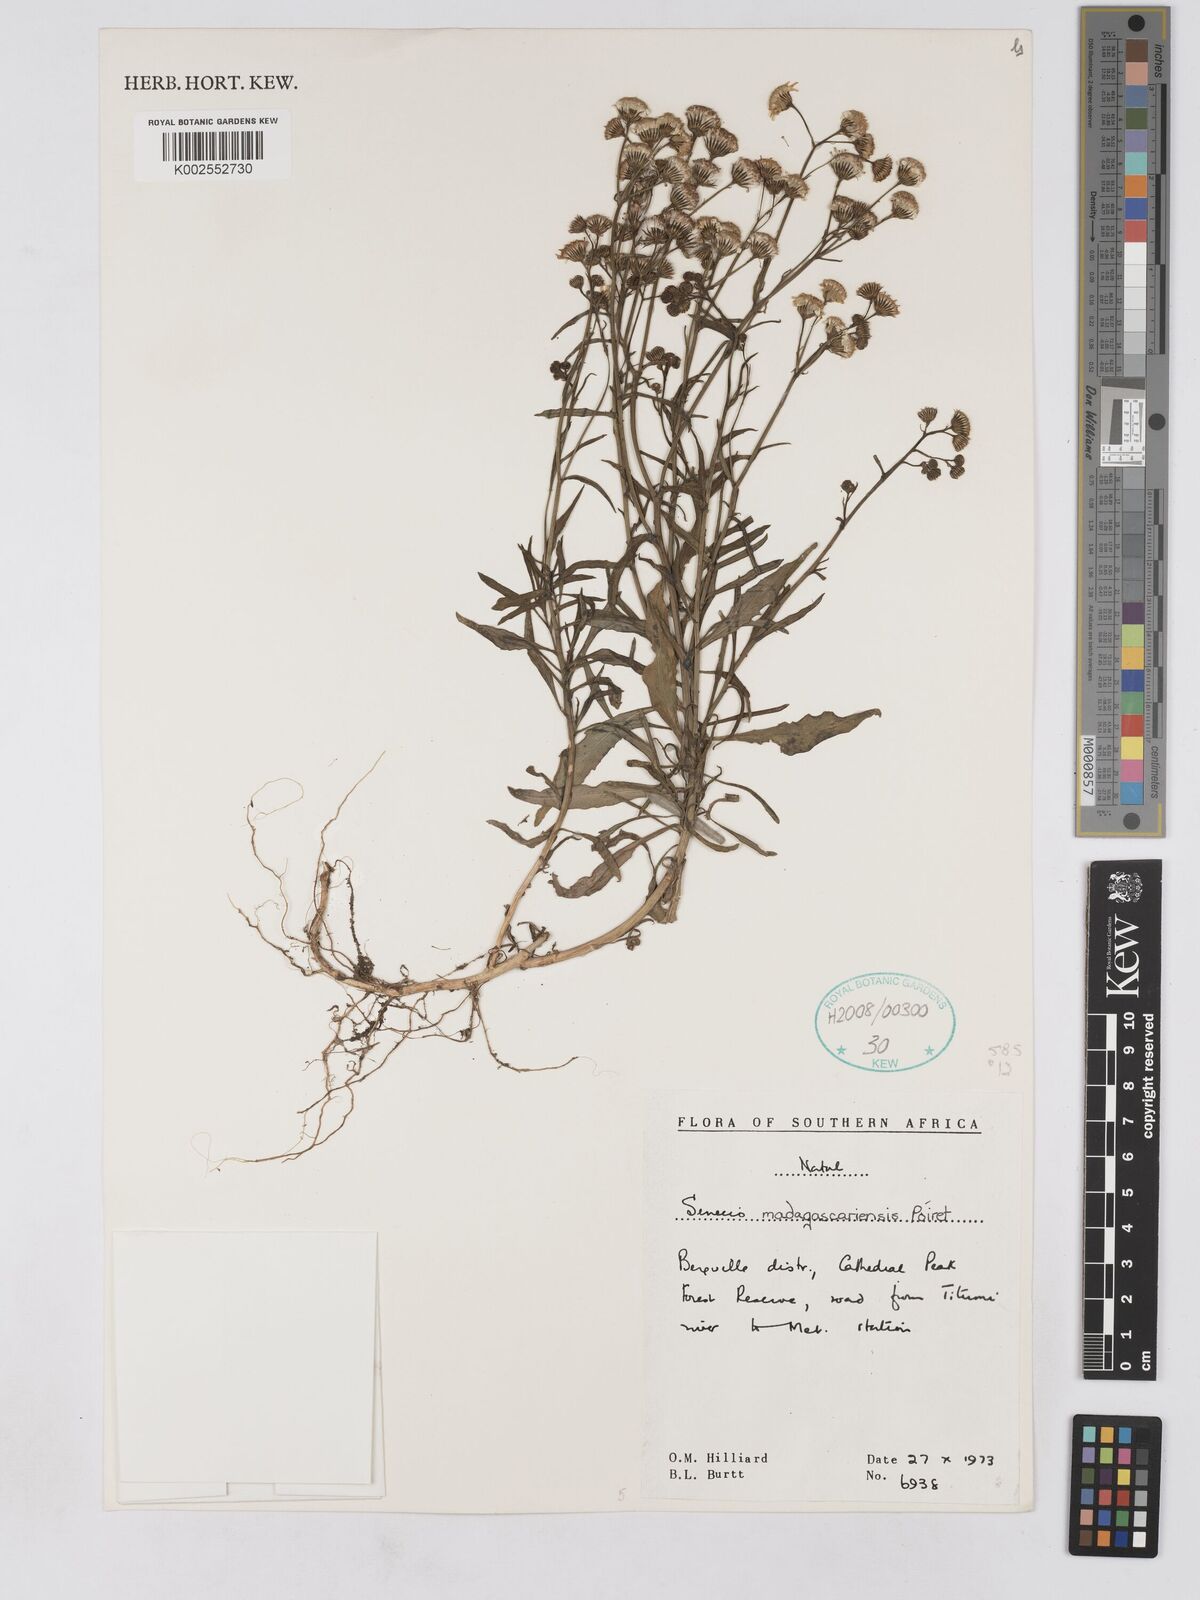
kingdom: Plantae
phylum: Tracheophyta
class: Magnoliopsida
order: Asterales
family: Asteraceae
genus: Senecio
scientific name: Senecio madagascariensis
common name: Madagascar ragwort
